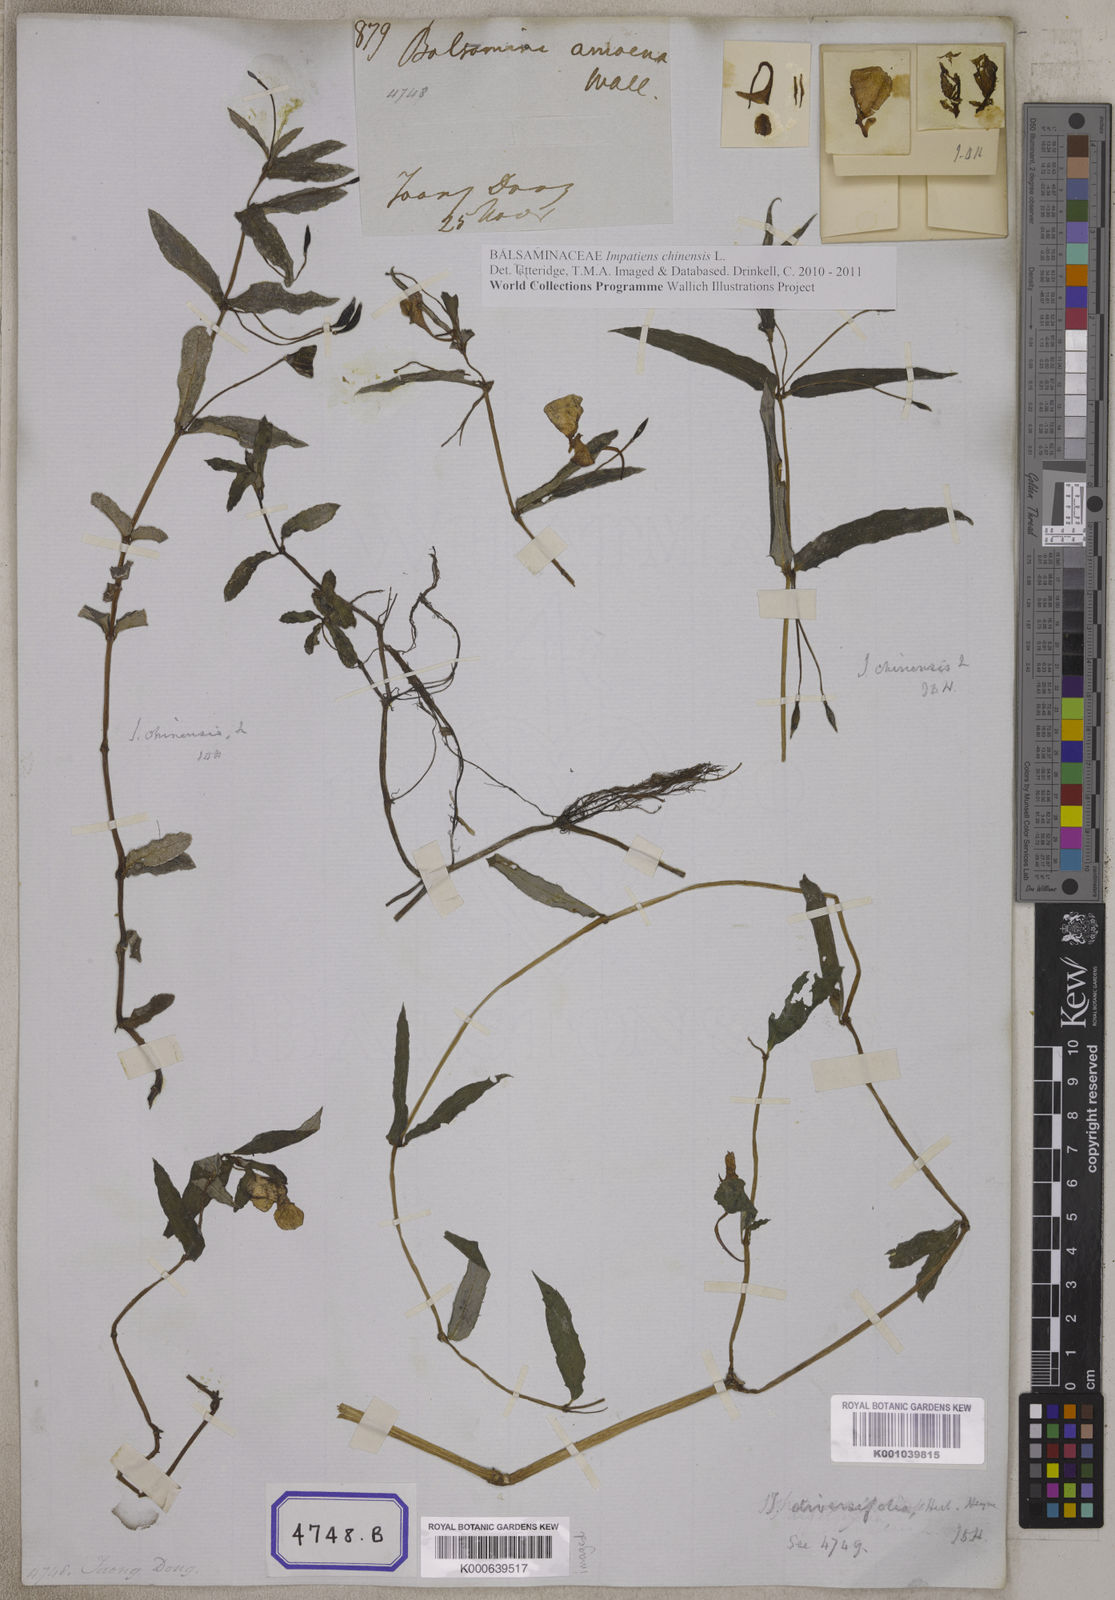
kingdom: Plantae
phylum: Tracheophyta
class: Magnoliopsida
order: Ericales
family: Balsaminaceae
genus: Impatiens
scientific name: Impatiens chinensis
